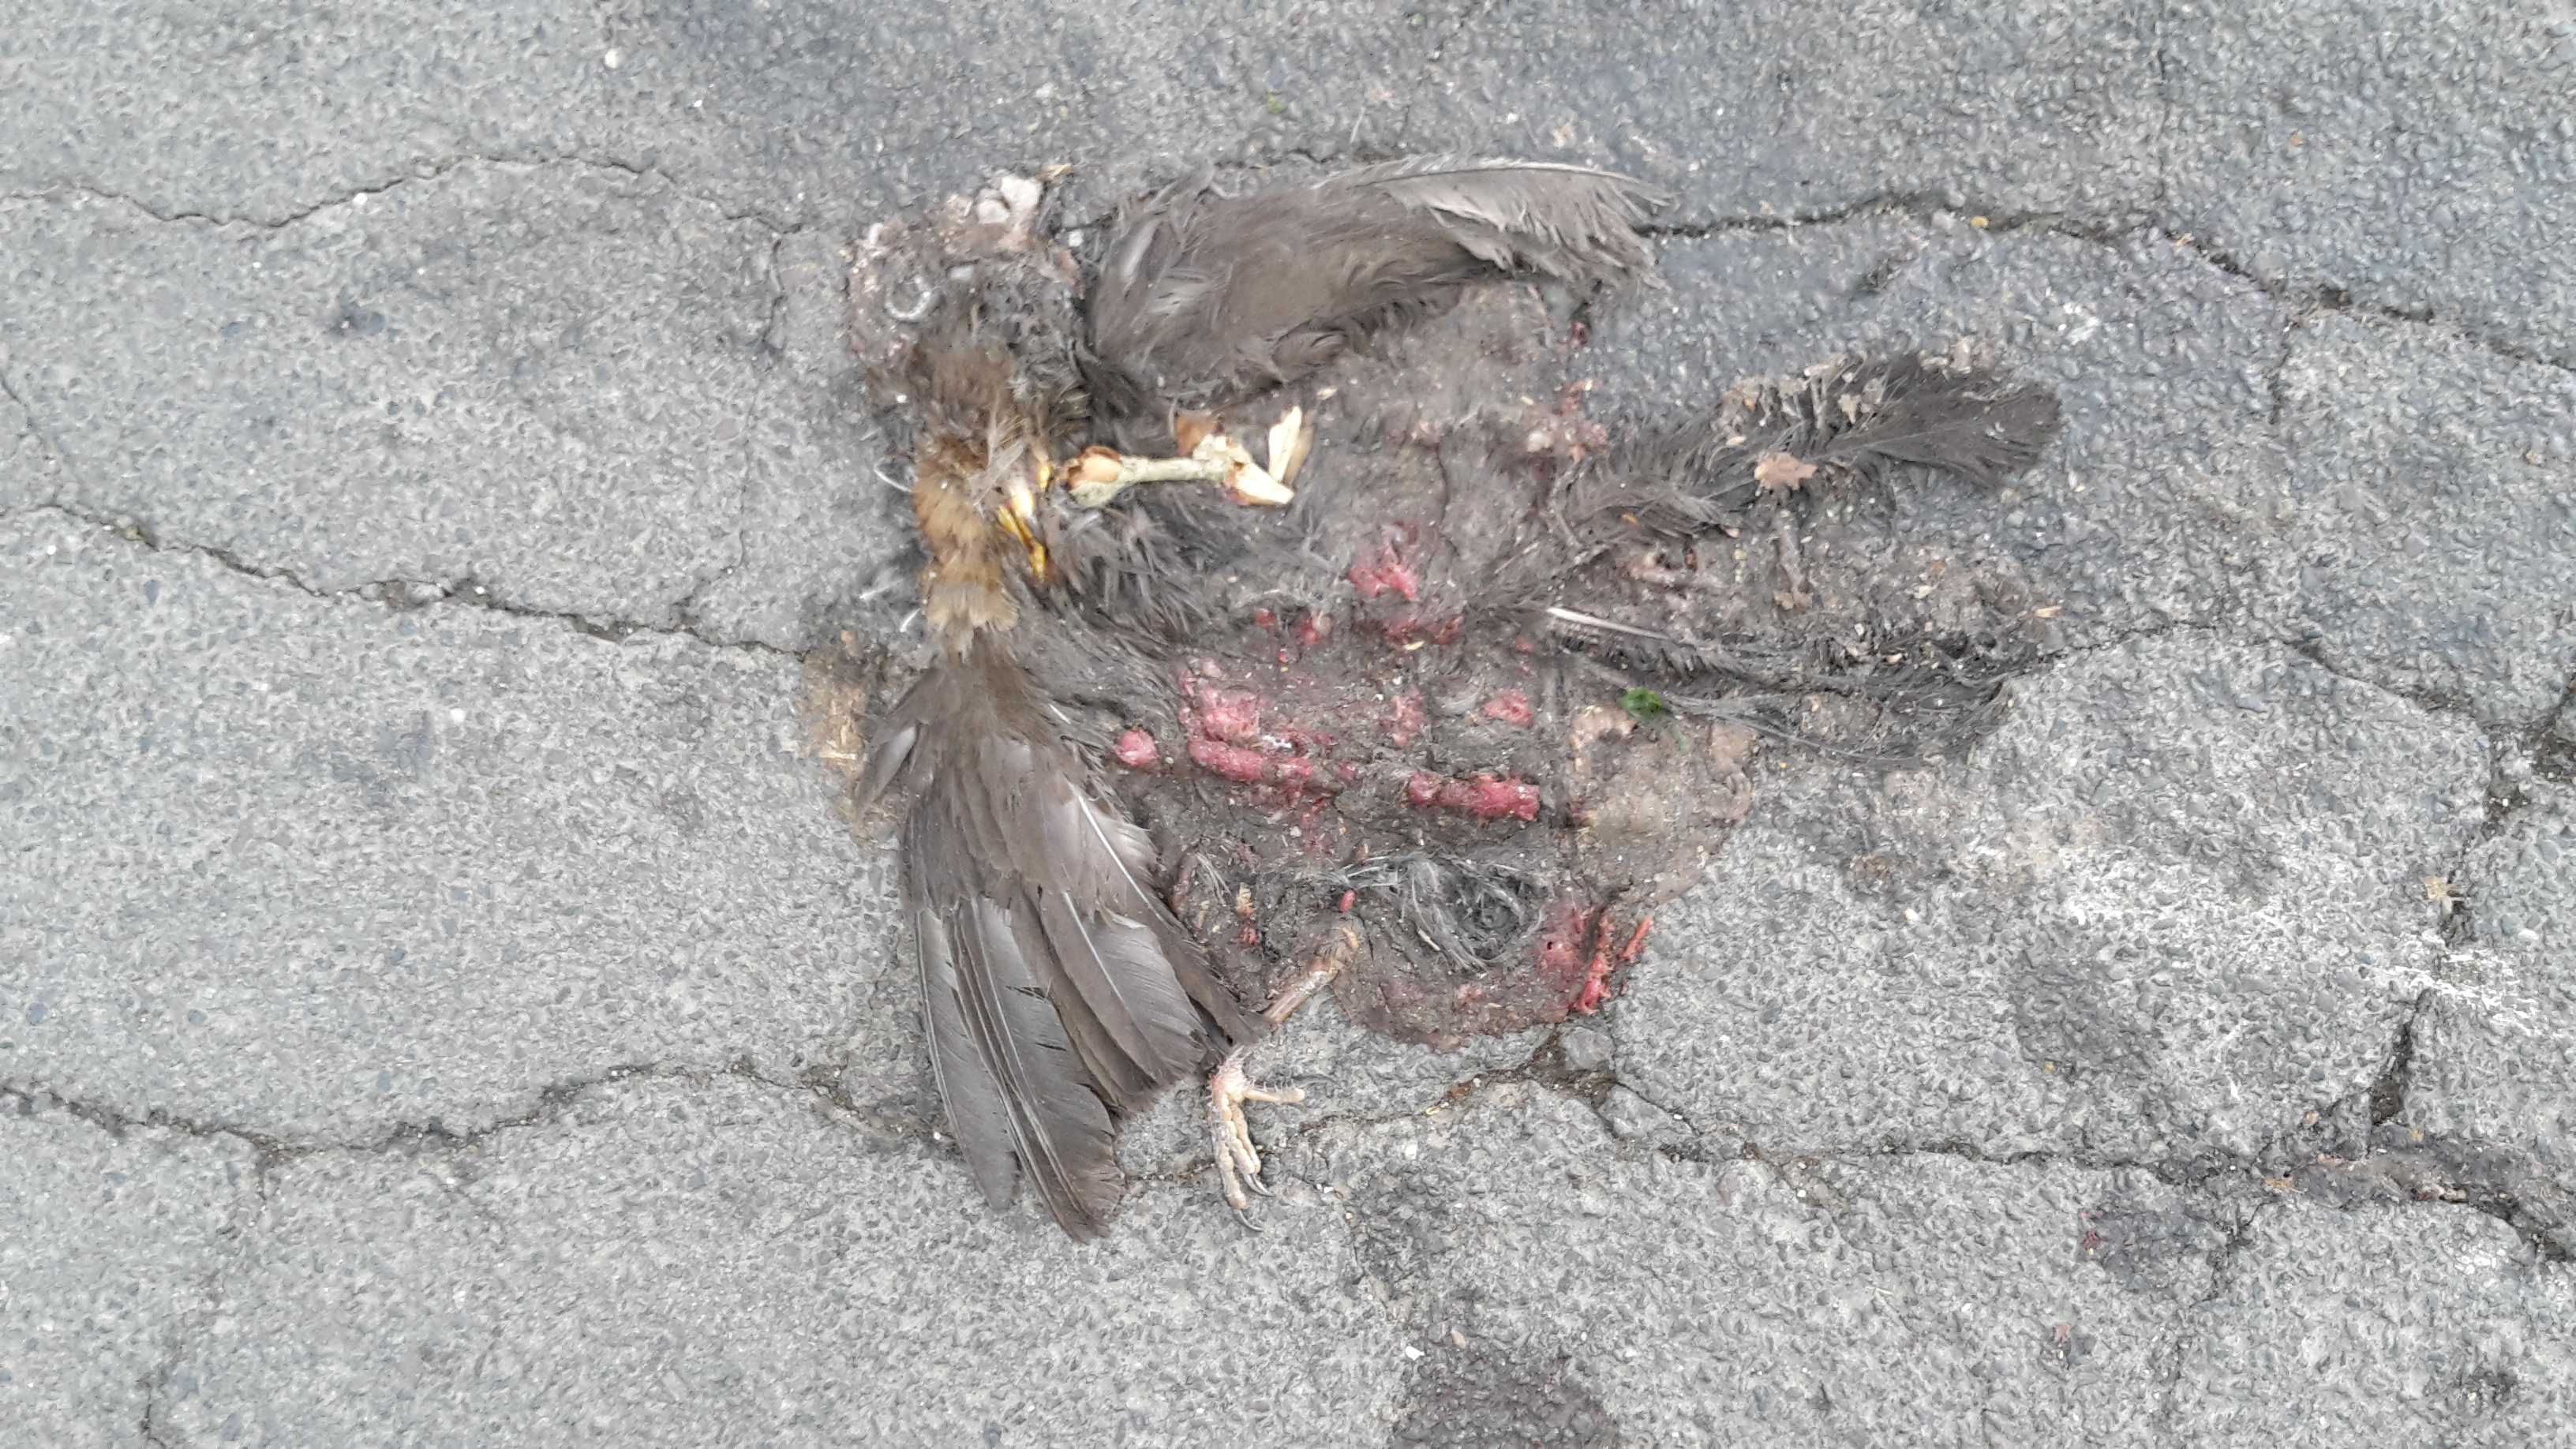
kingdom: Animalia
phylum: Chordata
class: Aves
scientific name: Aves
